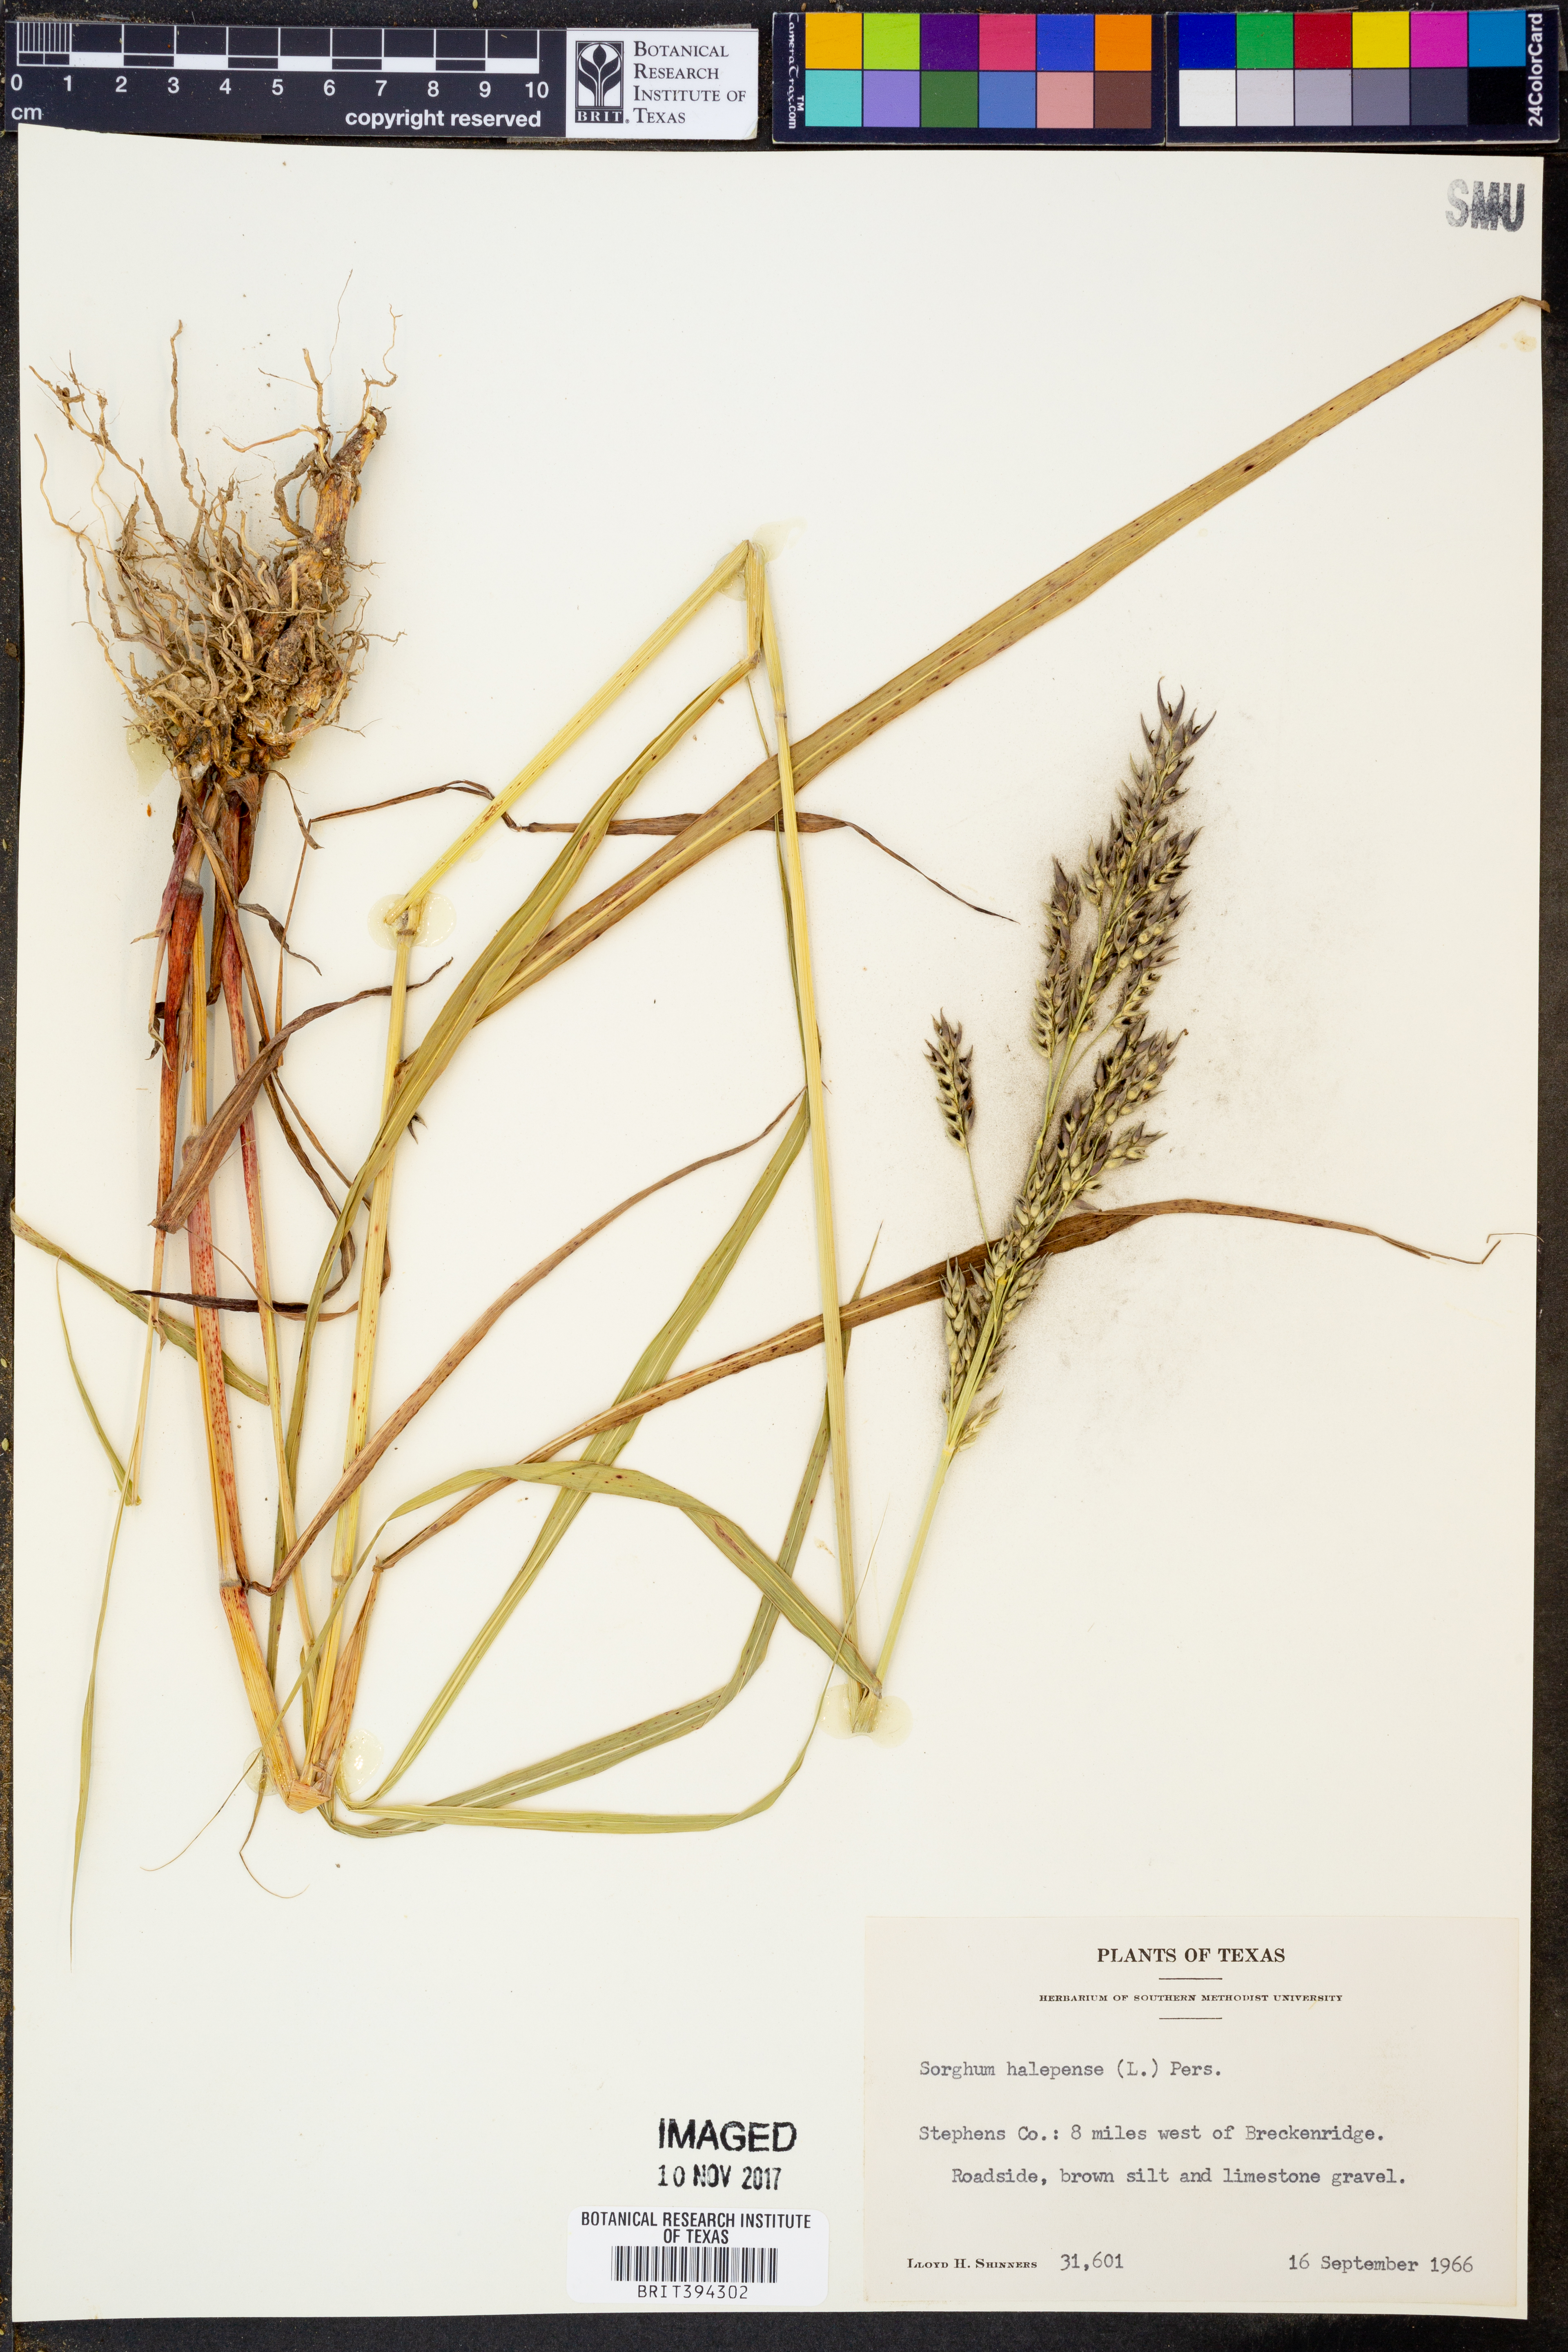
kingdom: Plantae
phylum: Tracheophyta
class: Liliopsida
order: Poales
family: Poaceae
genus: Sorghum
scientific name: Sorghum halepense
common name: Johnson-grass
